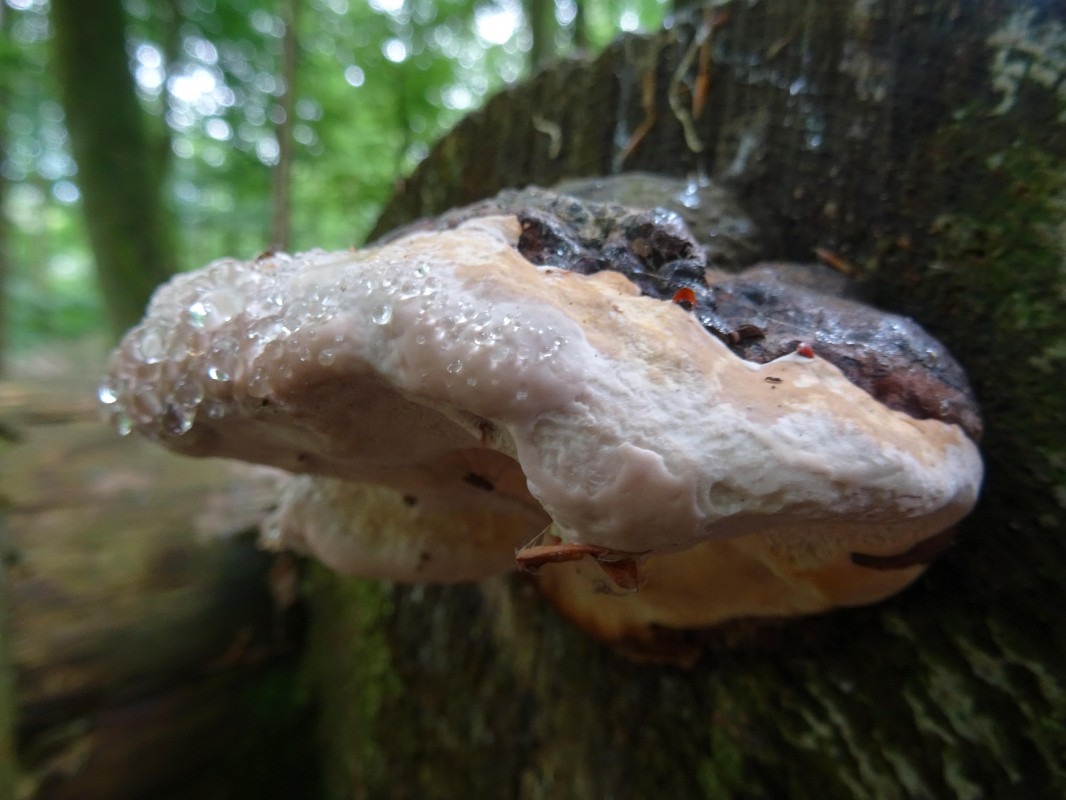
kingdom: Fungi
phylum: Basidiomycota
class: Agaricomycetes
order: Polyporales
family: Fomitopsidaceae
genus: Fomitopsis
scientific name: Fomitopsis pinicola
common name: randbæltet hovporesvamp
